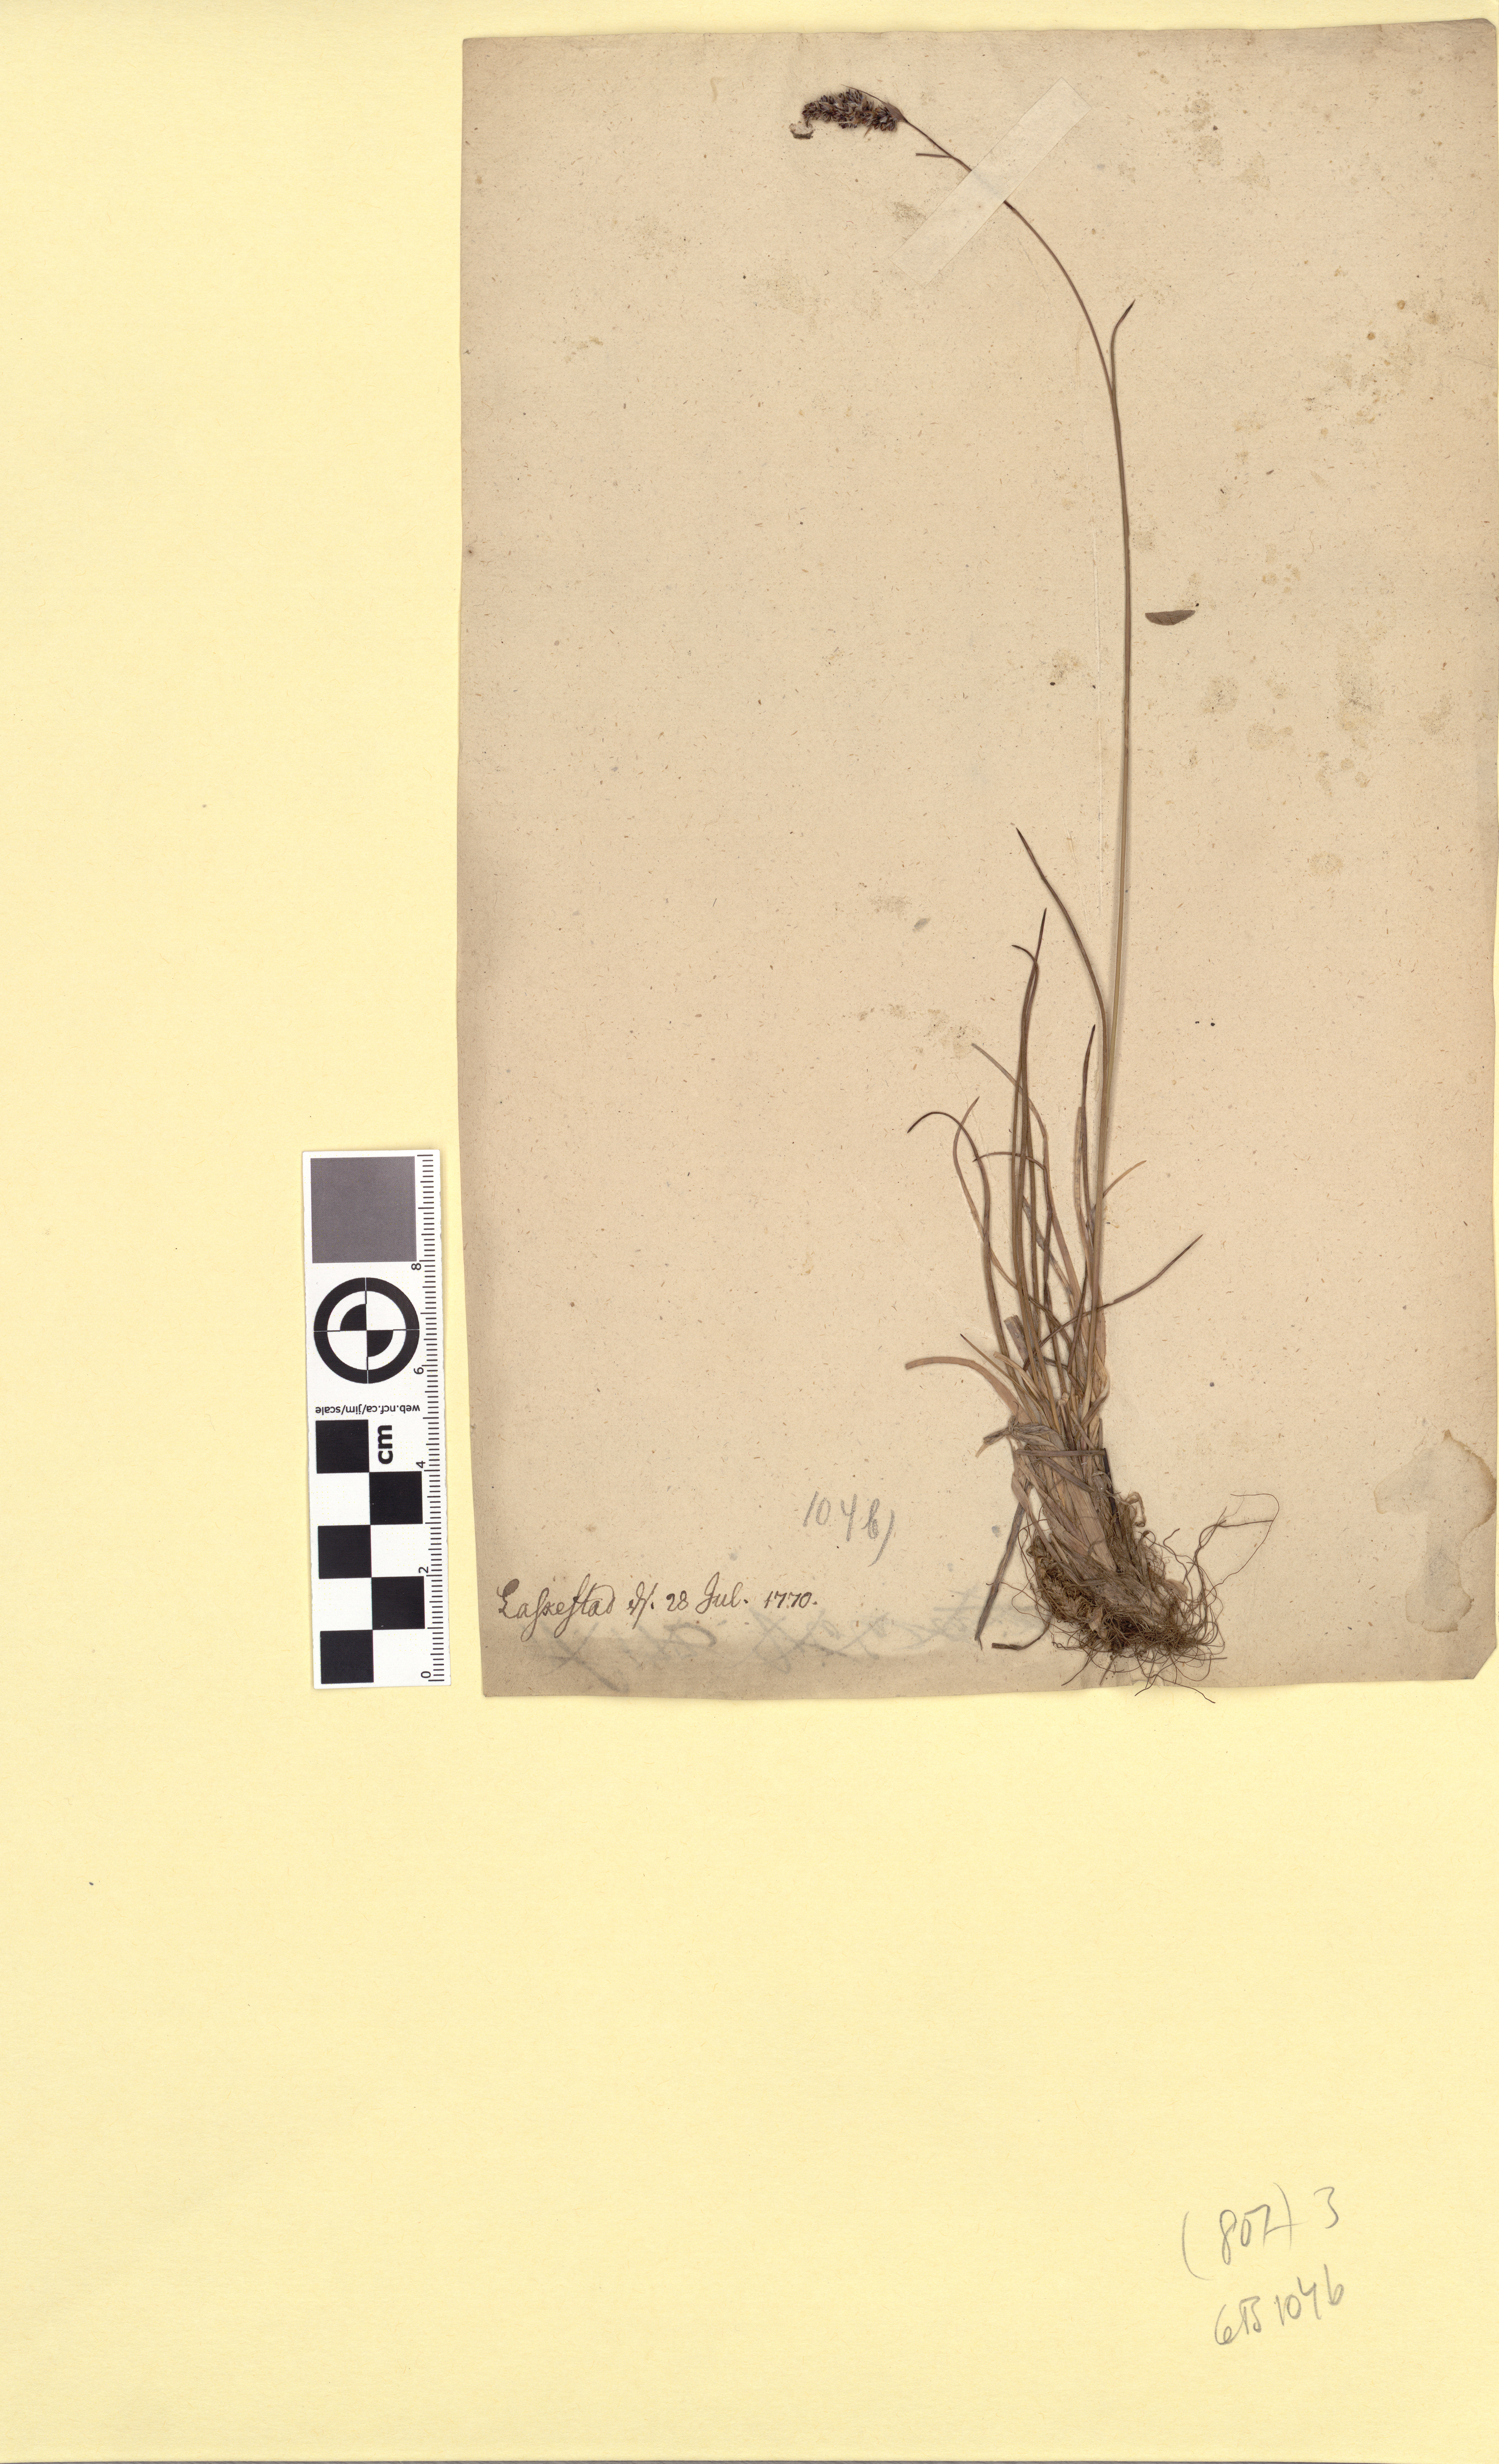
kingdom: Plantae
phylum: Tracheophyta
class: Liliopsida
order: Poales
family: Juncaceae
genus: Luzula
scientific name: Luzula spicata
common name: Spiked wood-rush
